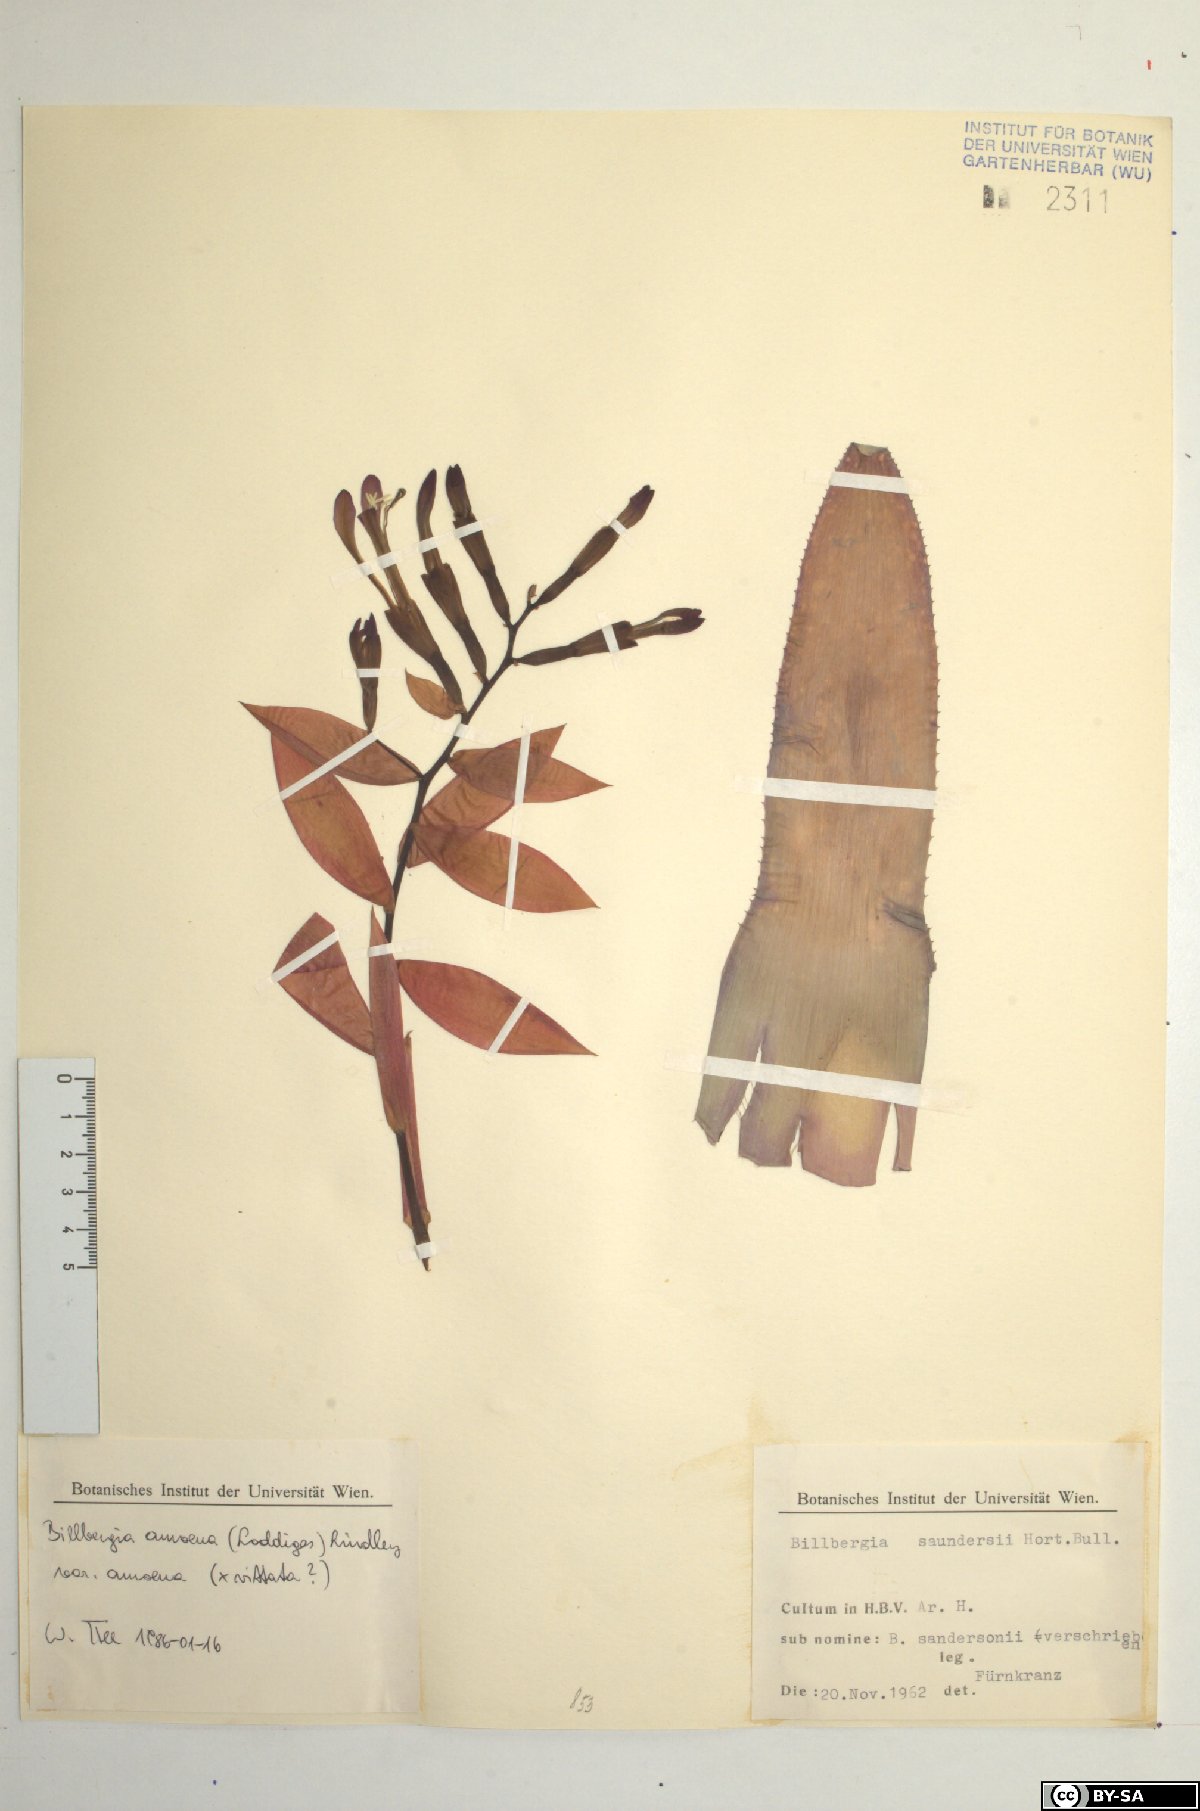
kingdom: Plantae
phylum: Tracheophyta
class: Liliopsida
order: Poales
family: Bromeliaceae
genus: Tillandsia
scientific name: Tillandsia tenuifolia
